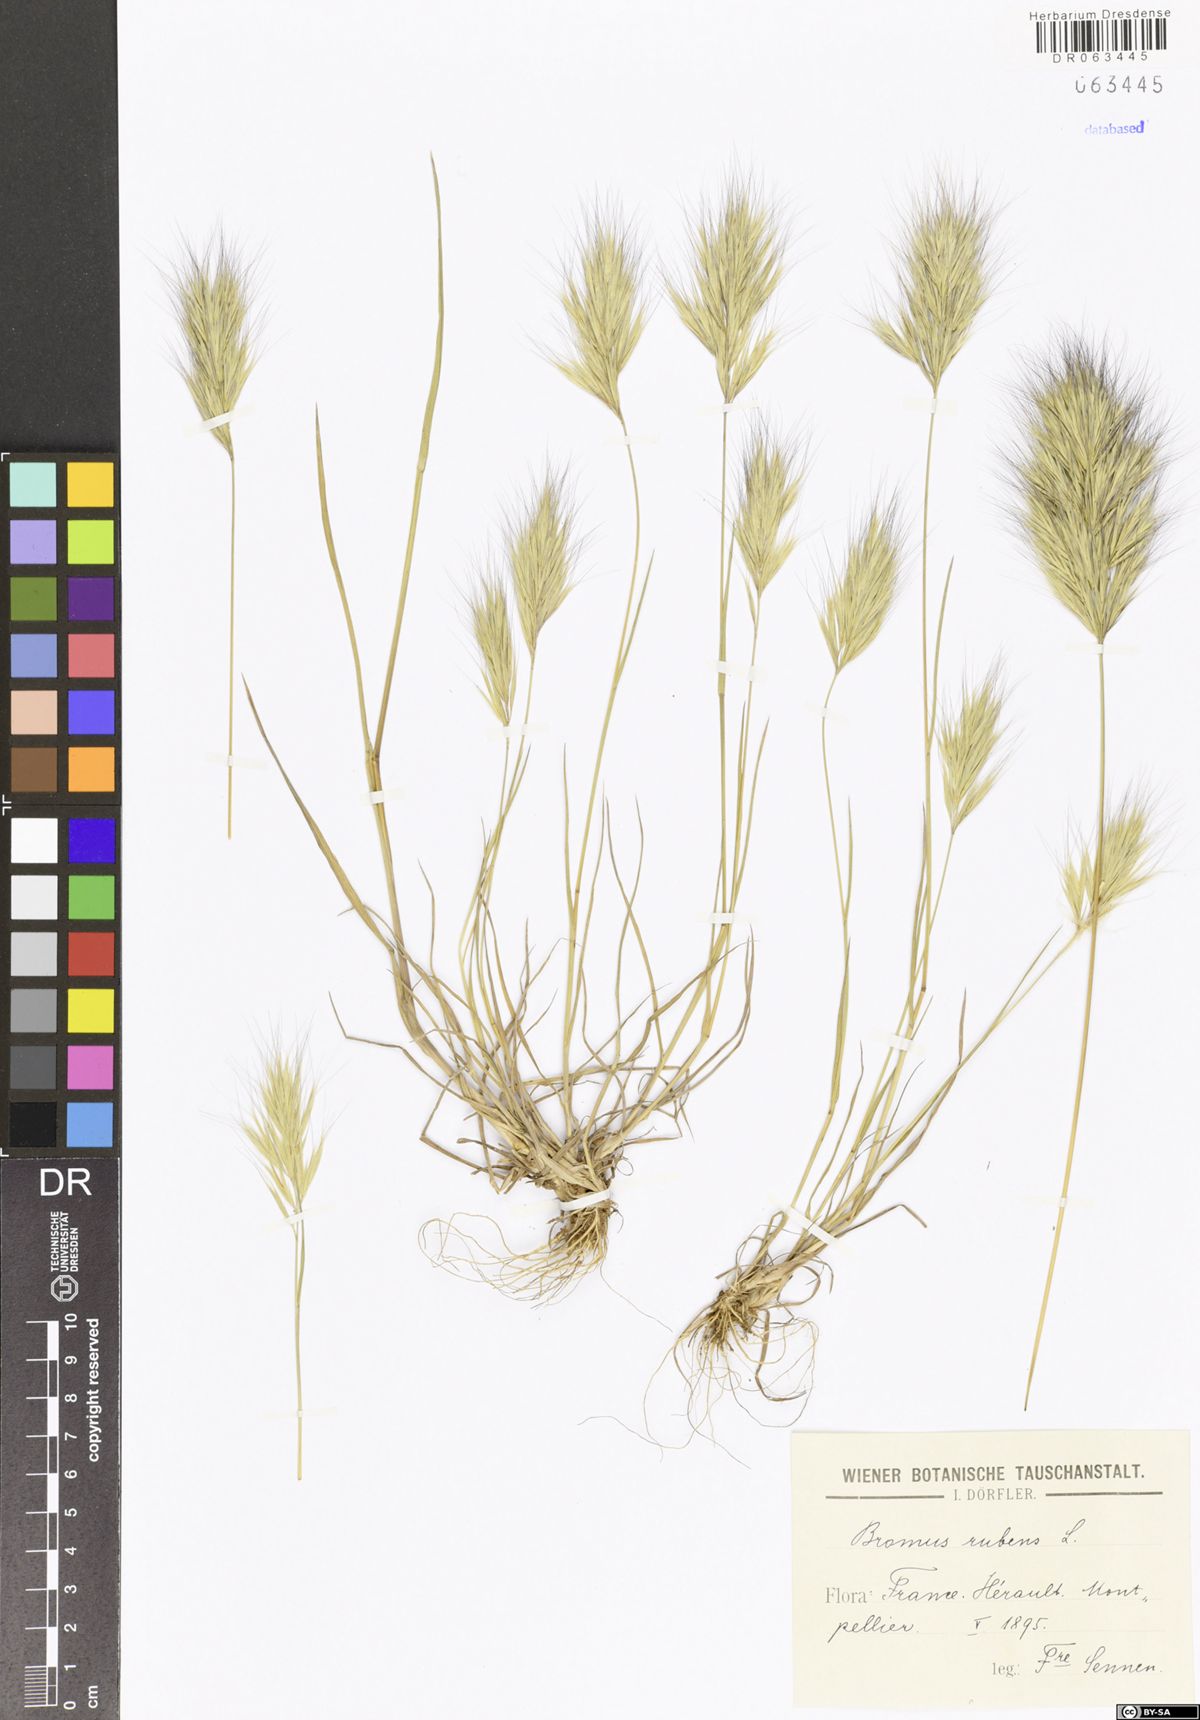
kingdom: Plantae
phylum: Tracheophyta
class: Liliopsida
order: Poales
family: Poaceae
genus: Bromus
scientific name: Bromus rubens
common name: Red brome
